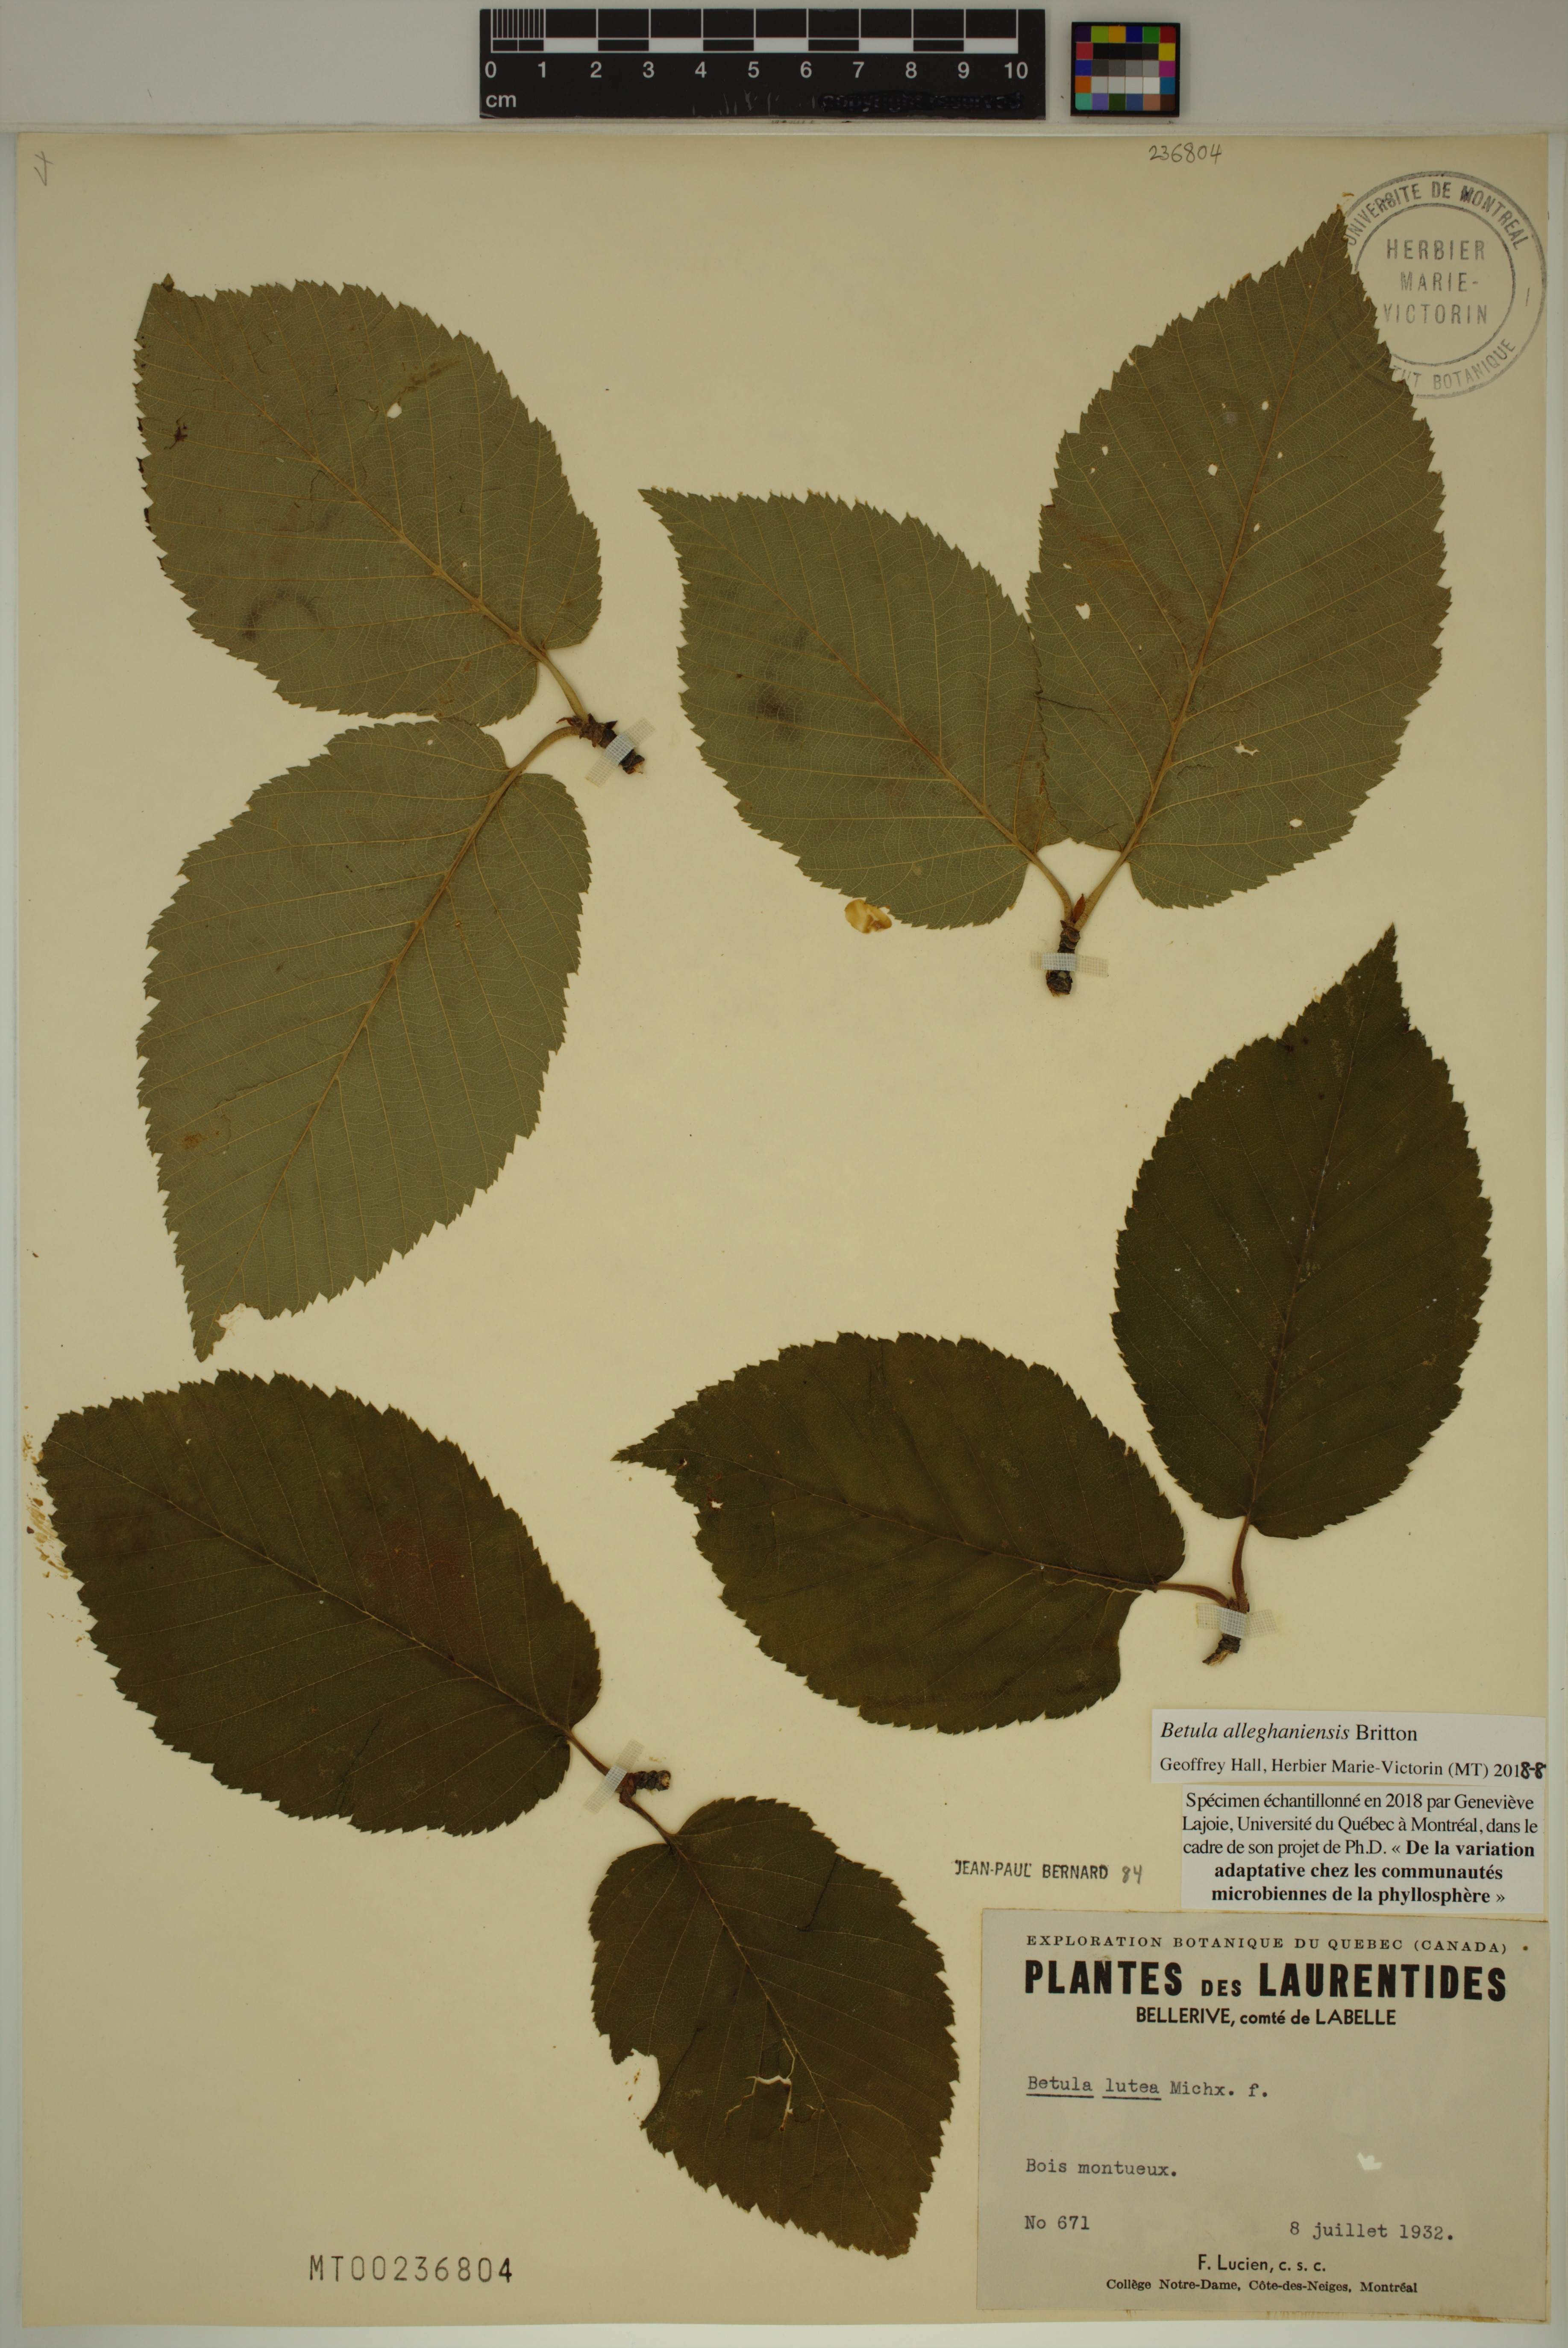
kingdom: Plantae
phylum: Tracheophyta
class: Magnoliopsida
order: Fagales
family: Betulaceae
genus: Betula
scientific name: Betula alleghaniensis
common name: Yellow birch
